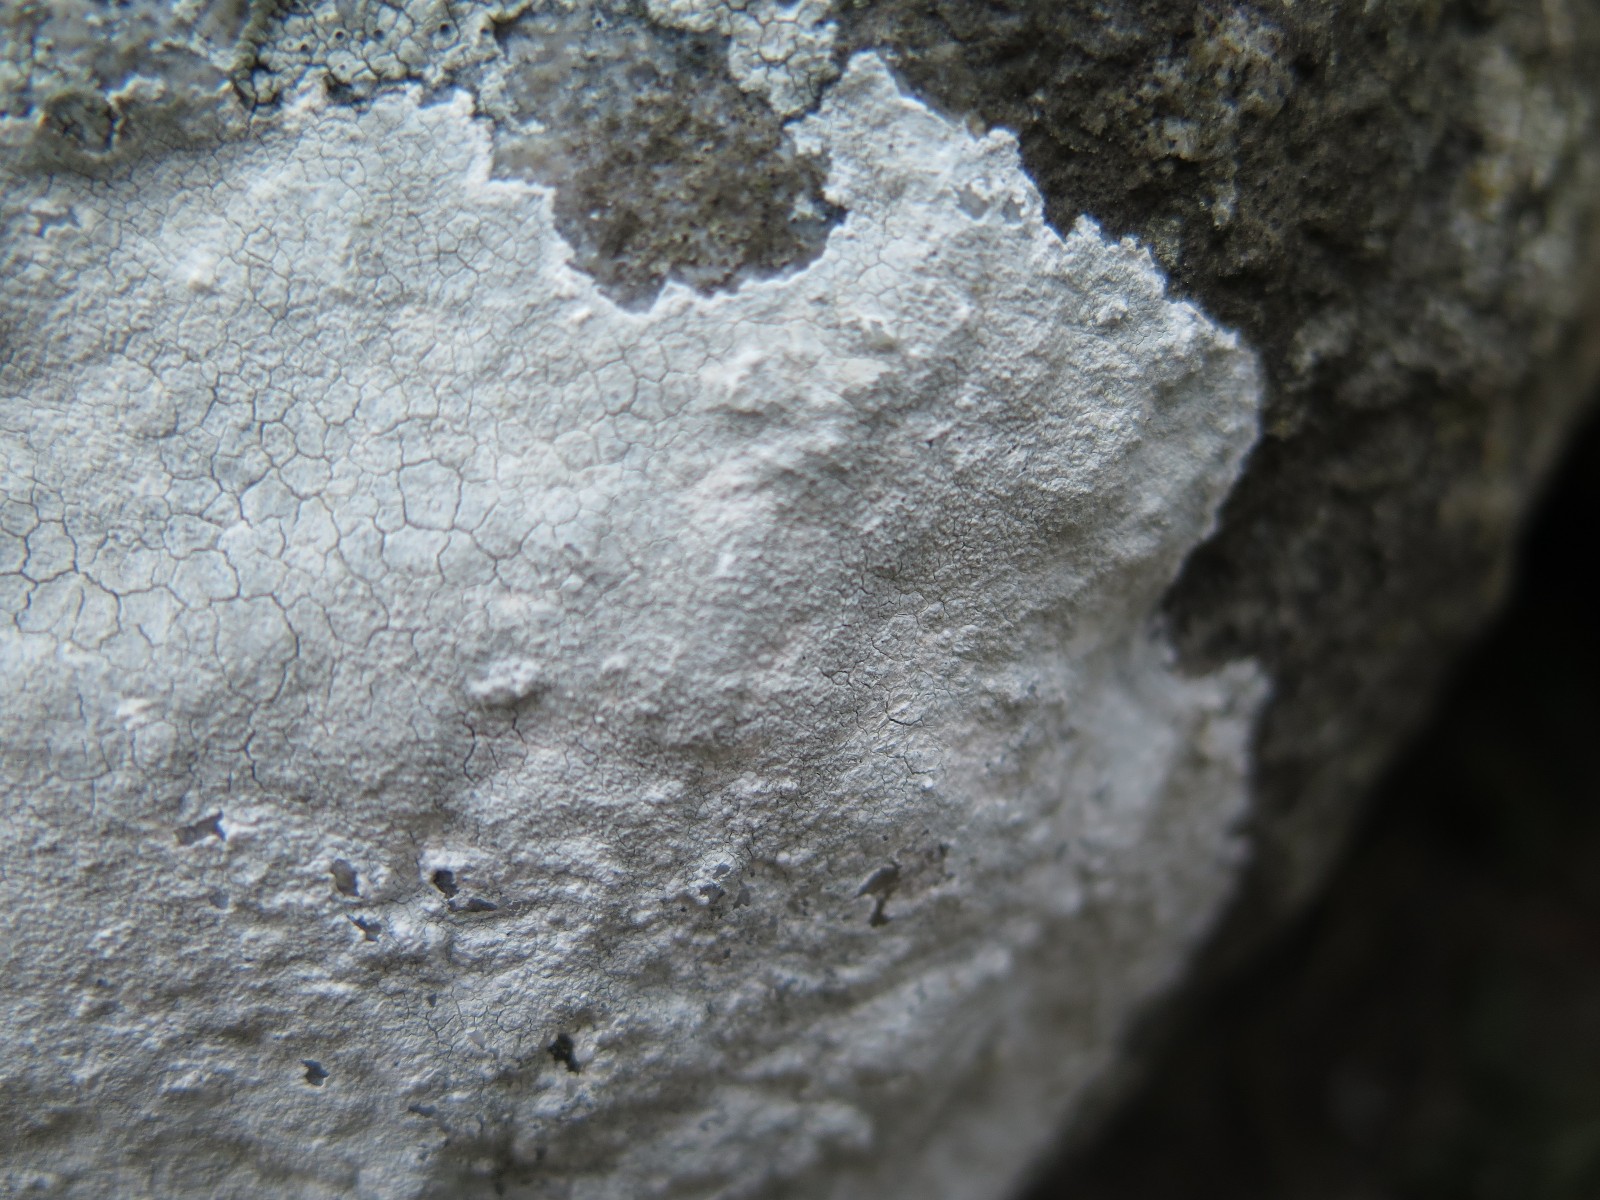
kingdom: Fungi
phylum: Ascomycota
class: Lecanoromycetes
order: Lecanorales
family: Lecanoraceae
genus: Glaucomaria
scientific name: Glaucomaria rupicola
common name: stengærde-kantskivelav
